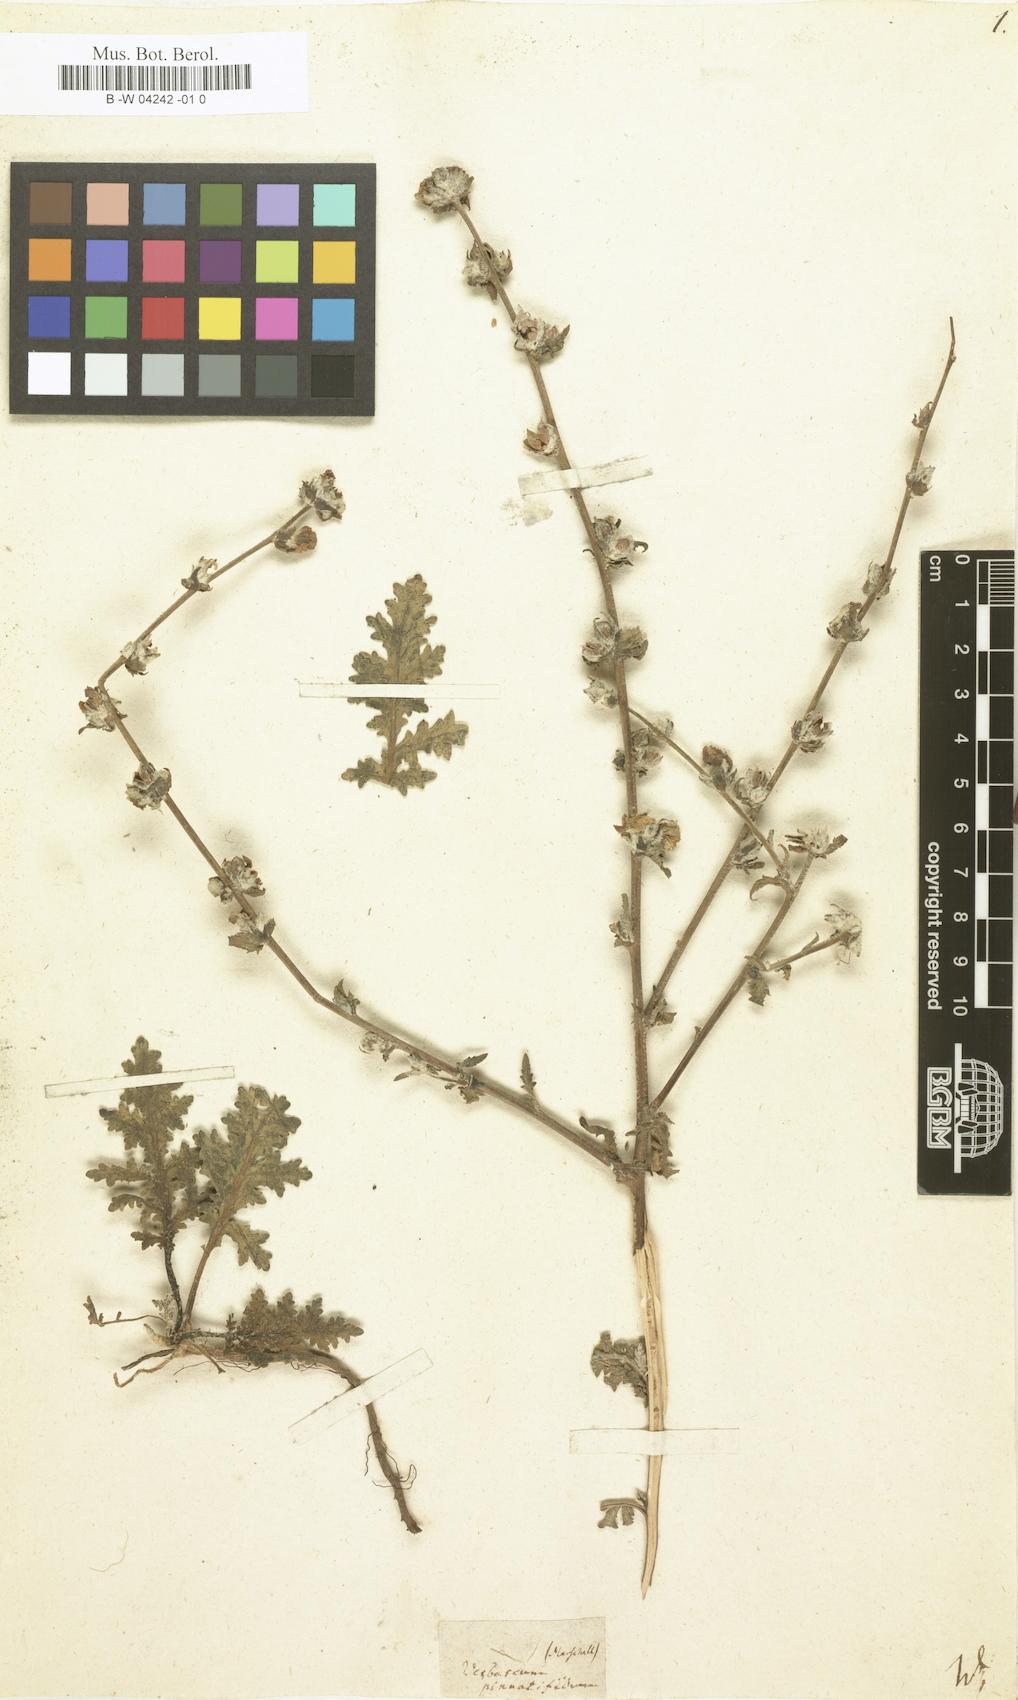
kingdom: Plantae
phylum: Tracheophyta
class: Magnoliopsida
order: Lamiales
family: Scrophulariaceae
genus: Verbascum
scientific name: Verbascum pinnatifidum
